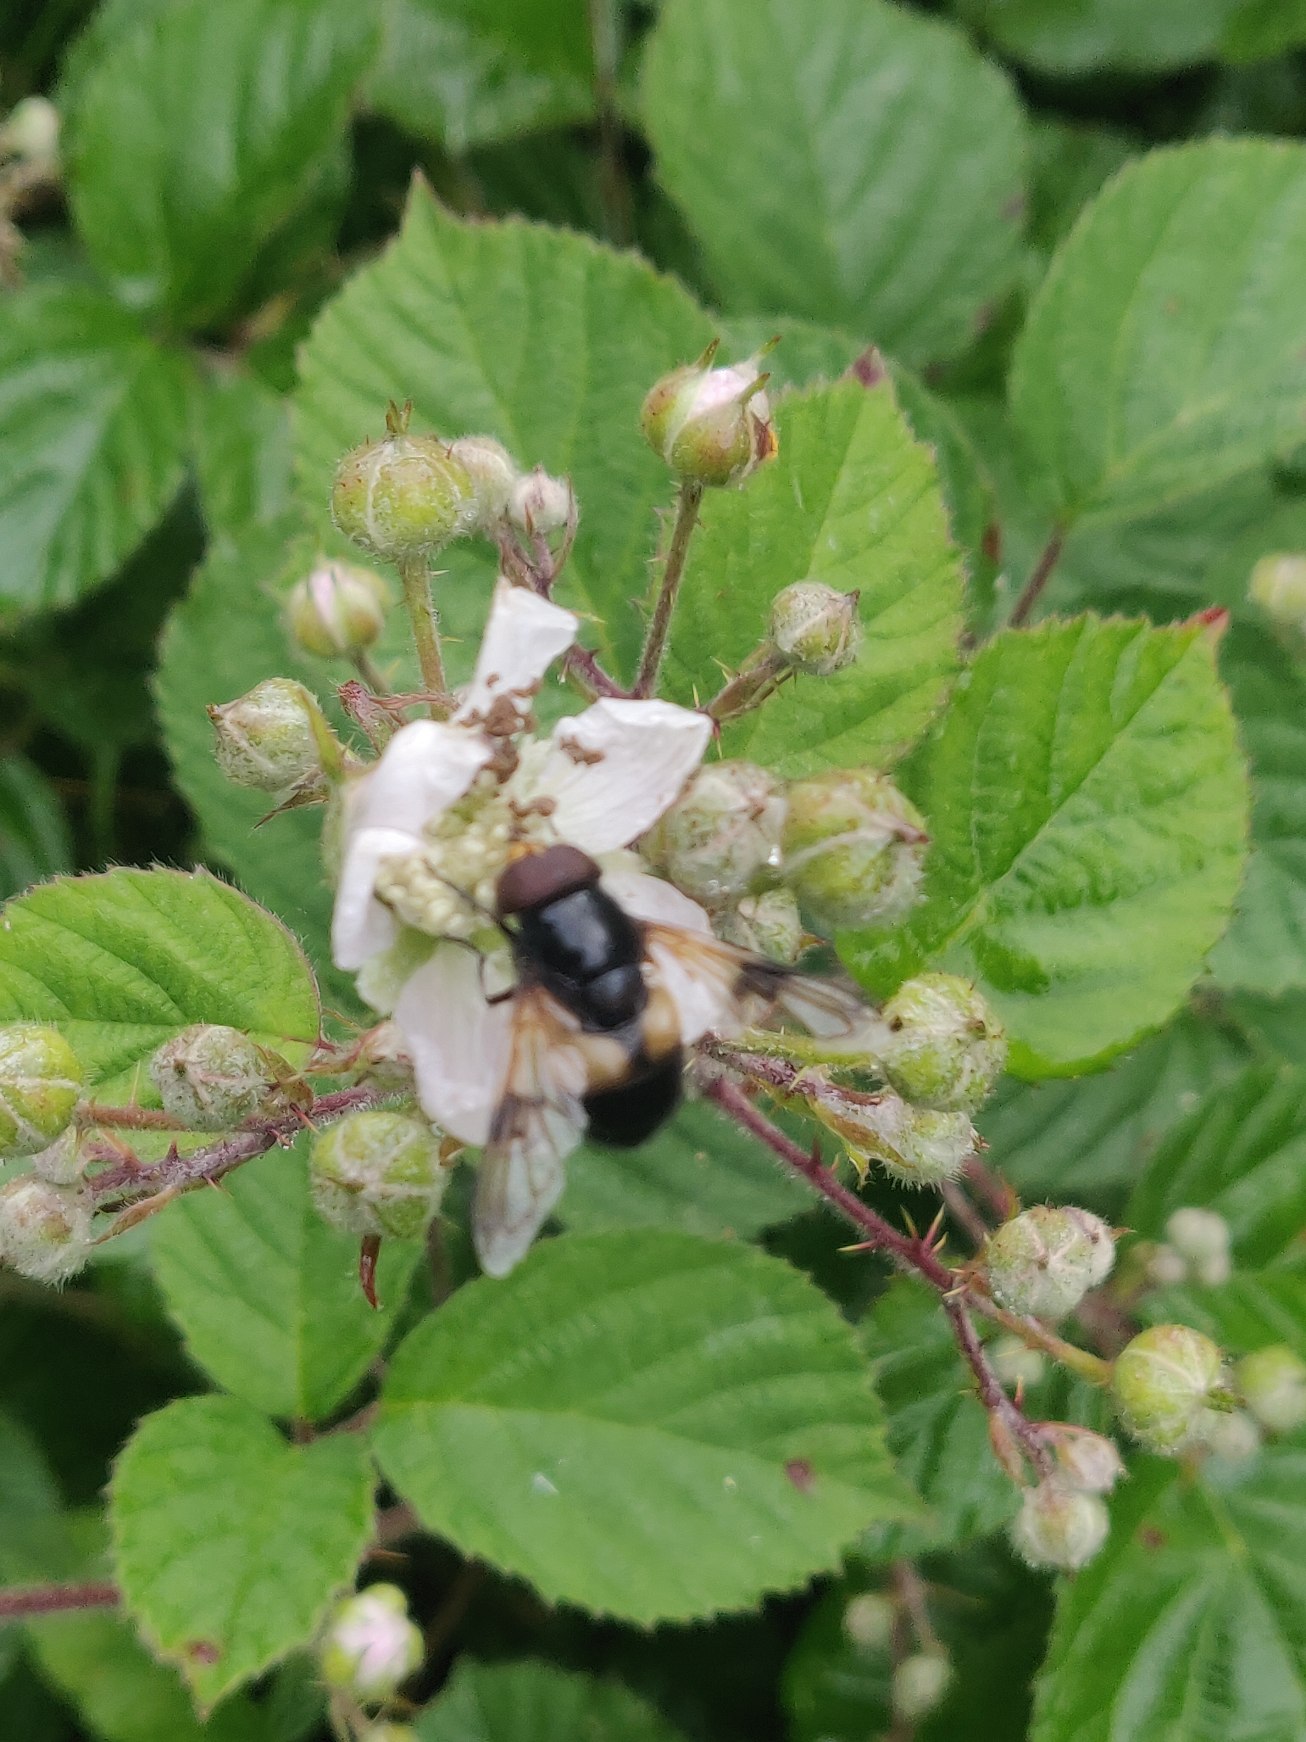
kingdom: Animalia
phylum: Arthropoda
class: Insecta
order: Diptera
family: Syrphidae
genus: Volucella
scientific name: Volucella pellucens
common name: Hvidbåndet humlesvirreflue
